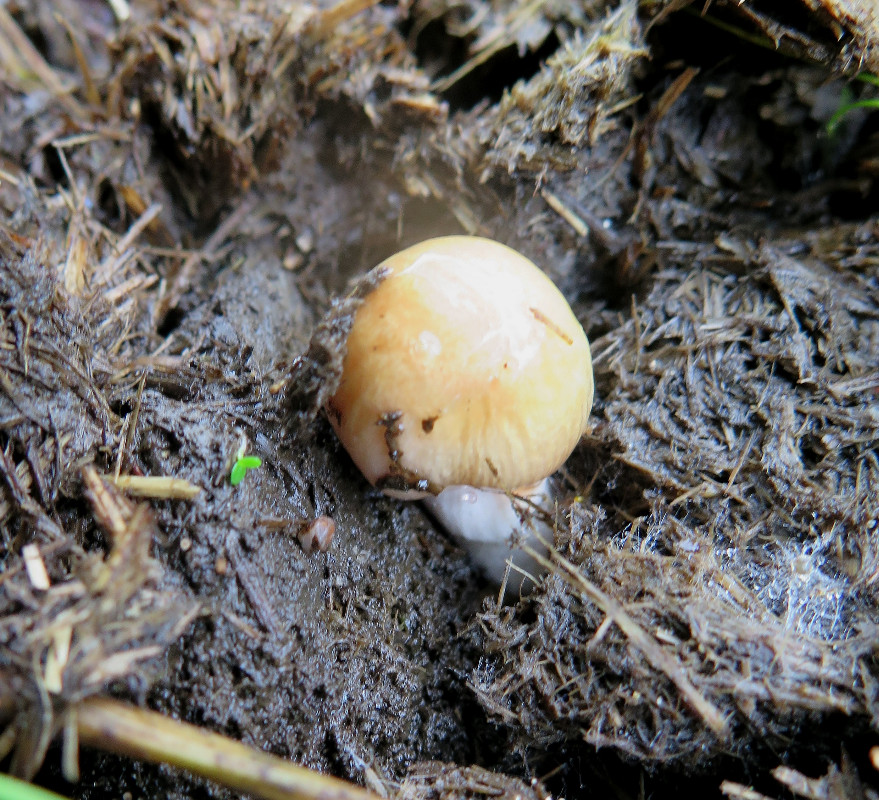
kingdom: Fungi
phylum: Basidiomycota
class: Agaricomycetes
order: Agaricales
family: Bolbitiaceae
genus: Bolbitius
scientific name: Bolbitius coprophilus
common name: rosa gulhat
